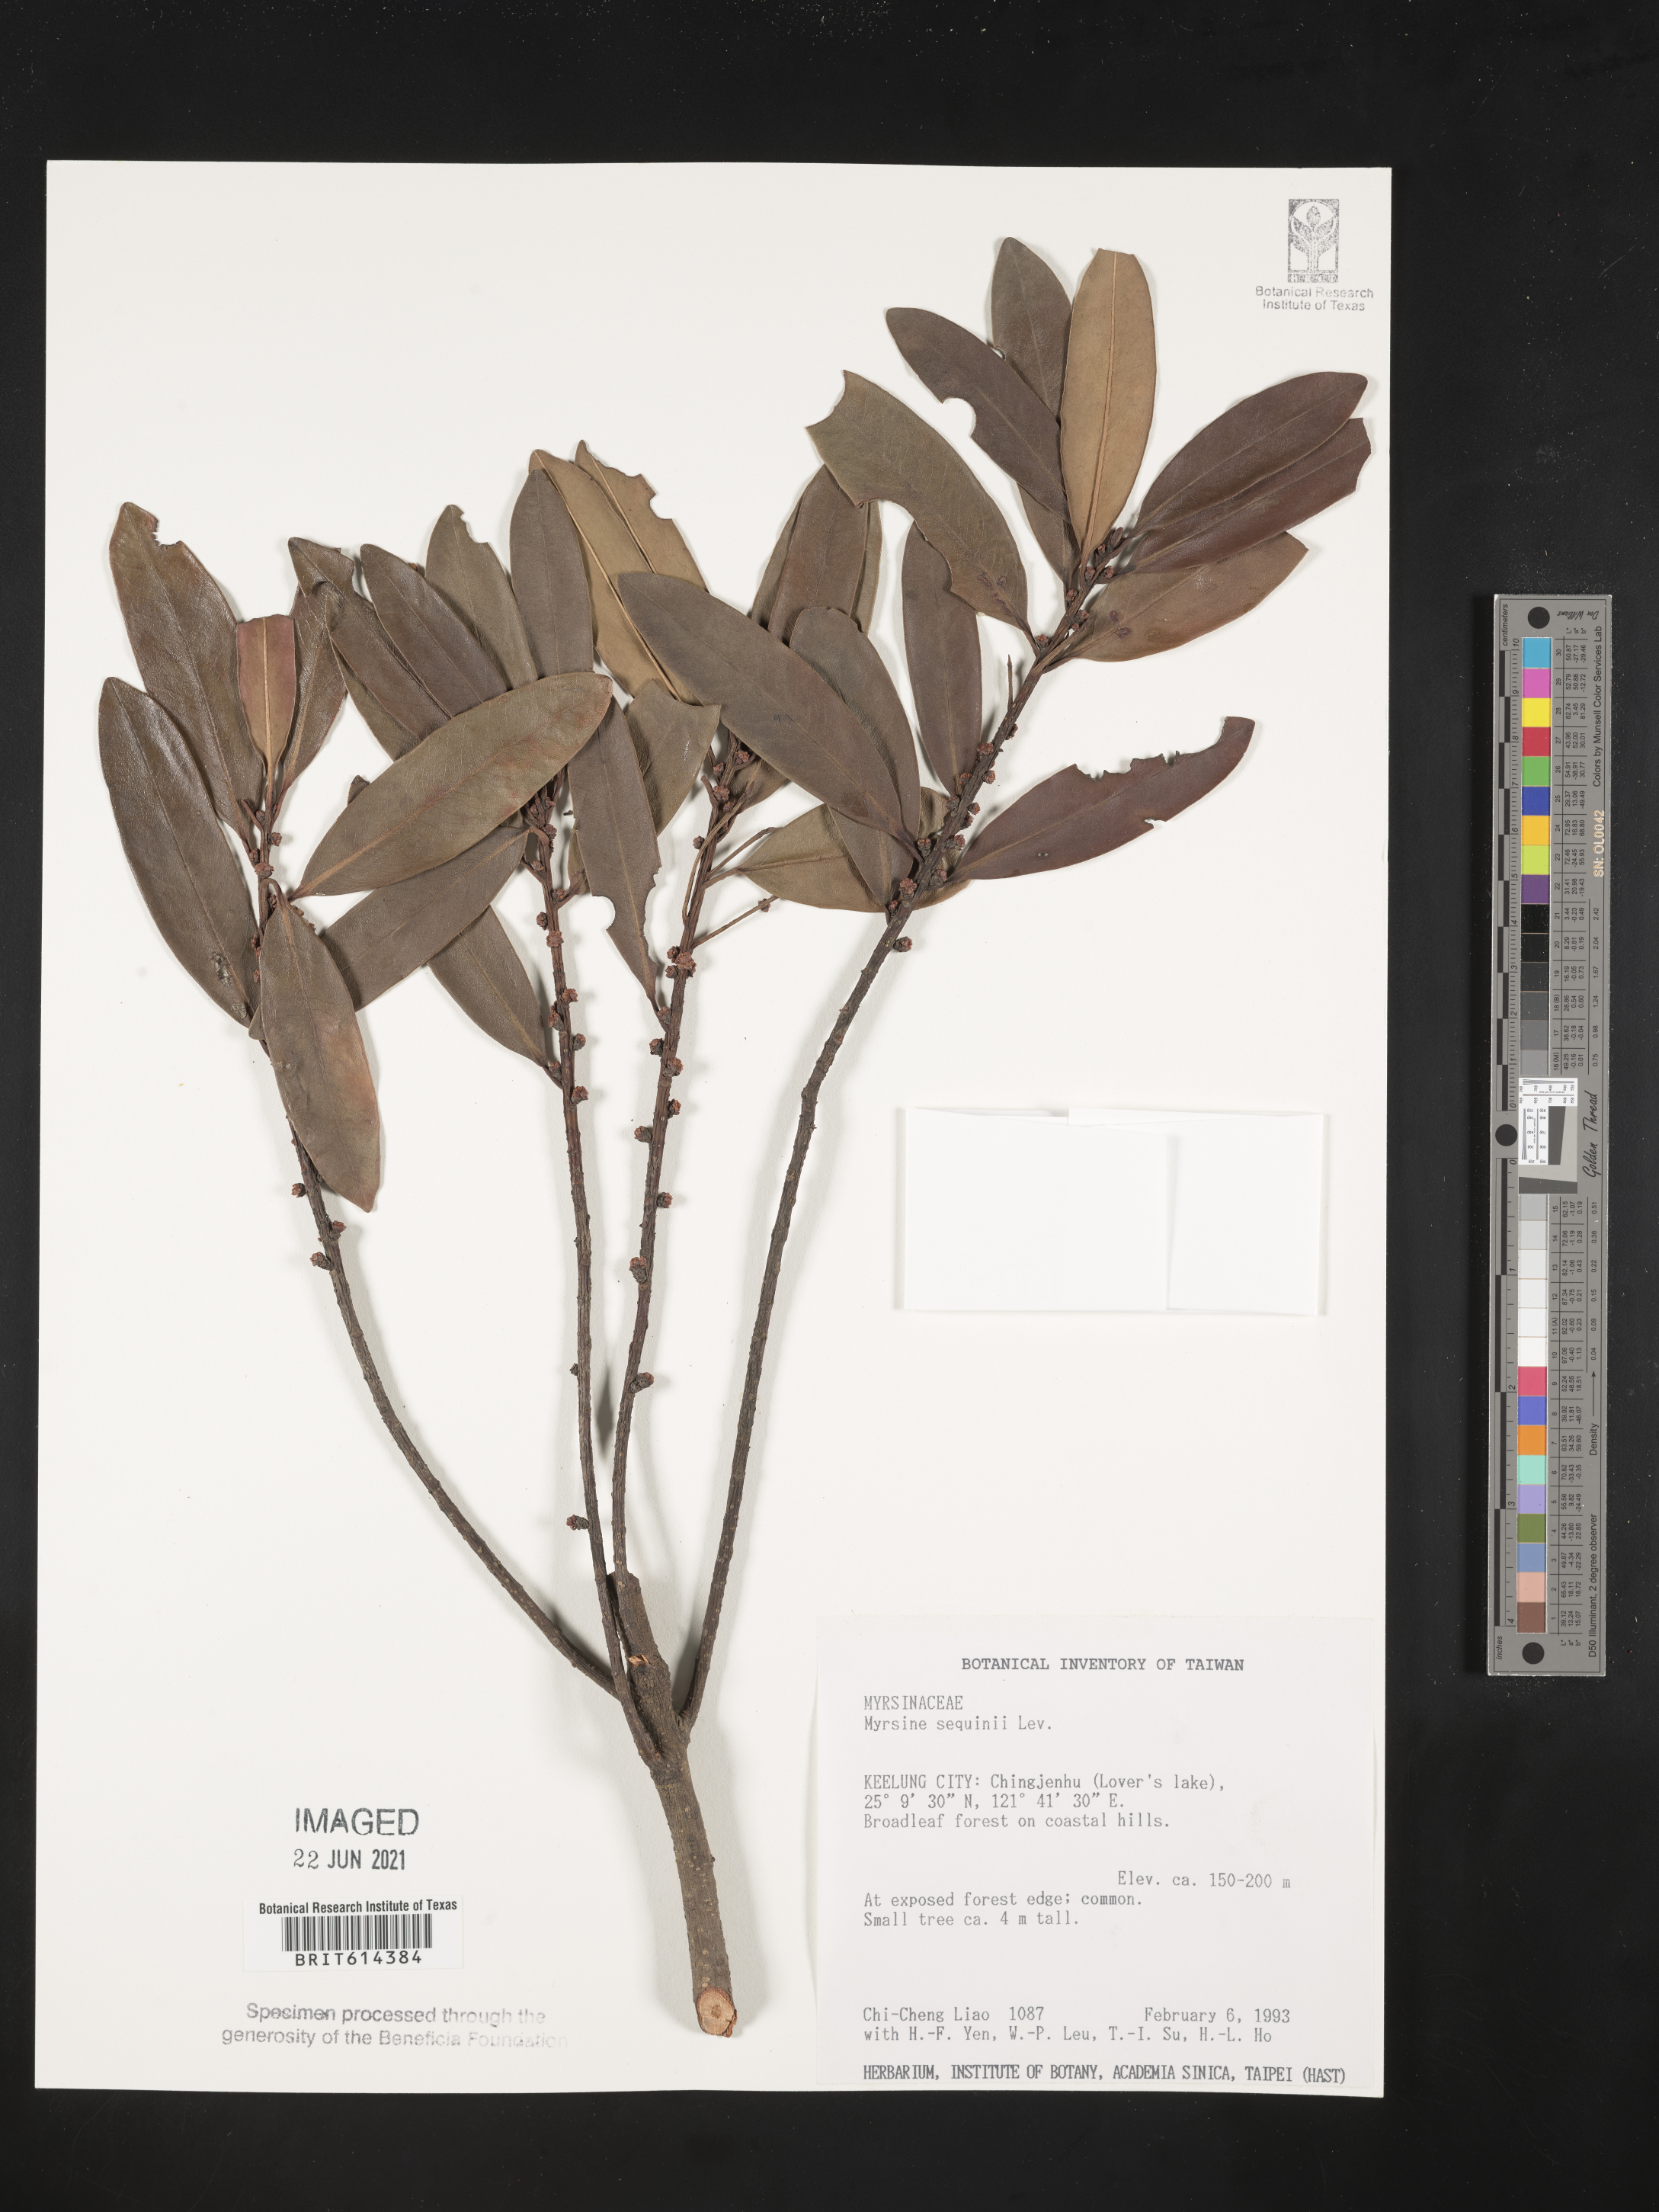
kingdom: Plantae
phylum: Tracheophyta
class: Magnoliopsida
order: Ericales
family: Primulaceae
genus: Myrsine
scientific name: Myrsine seguinii
